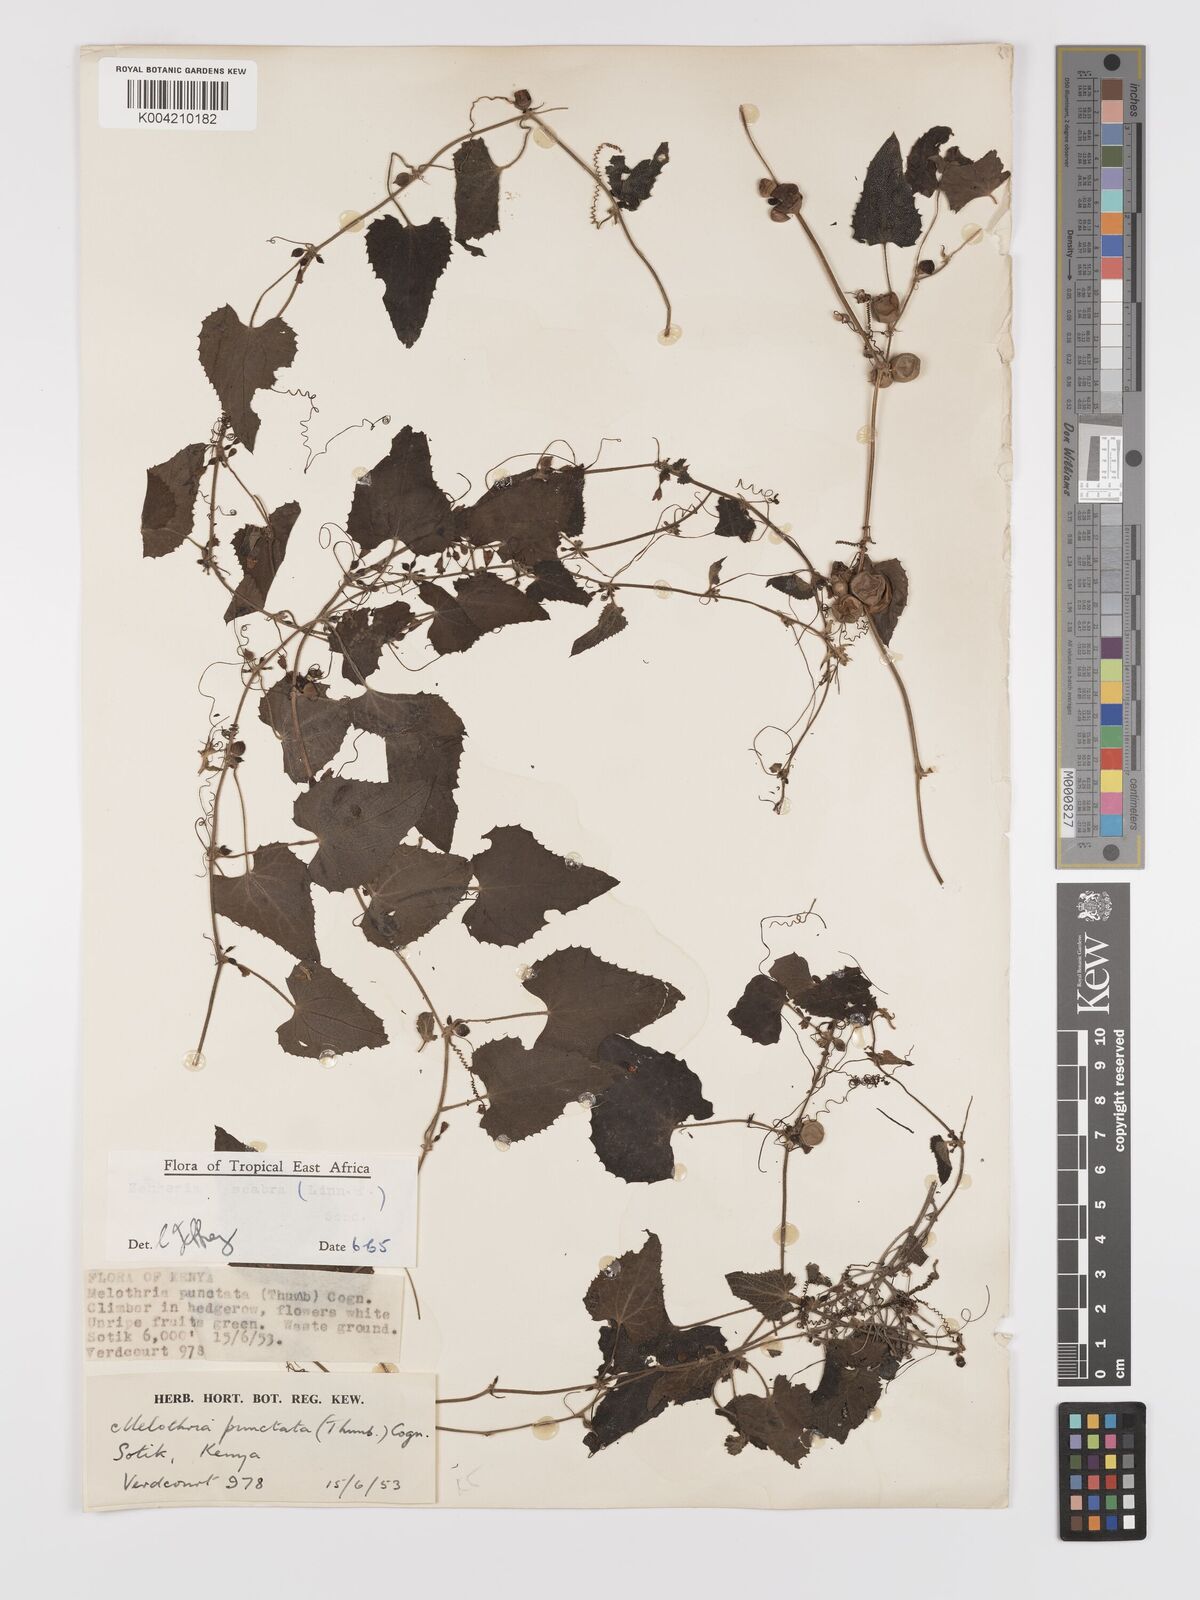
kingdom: Plantae
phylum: Tracheophyta
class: Magnoliopsida
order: Cucurbitales
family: Cucurbitaceae
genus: Zehneria
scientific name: Zehneria scabra
